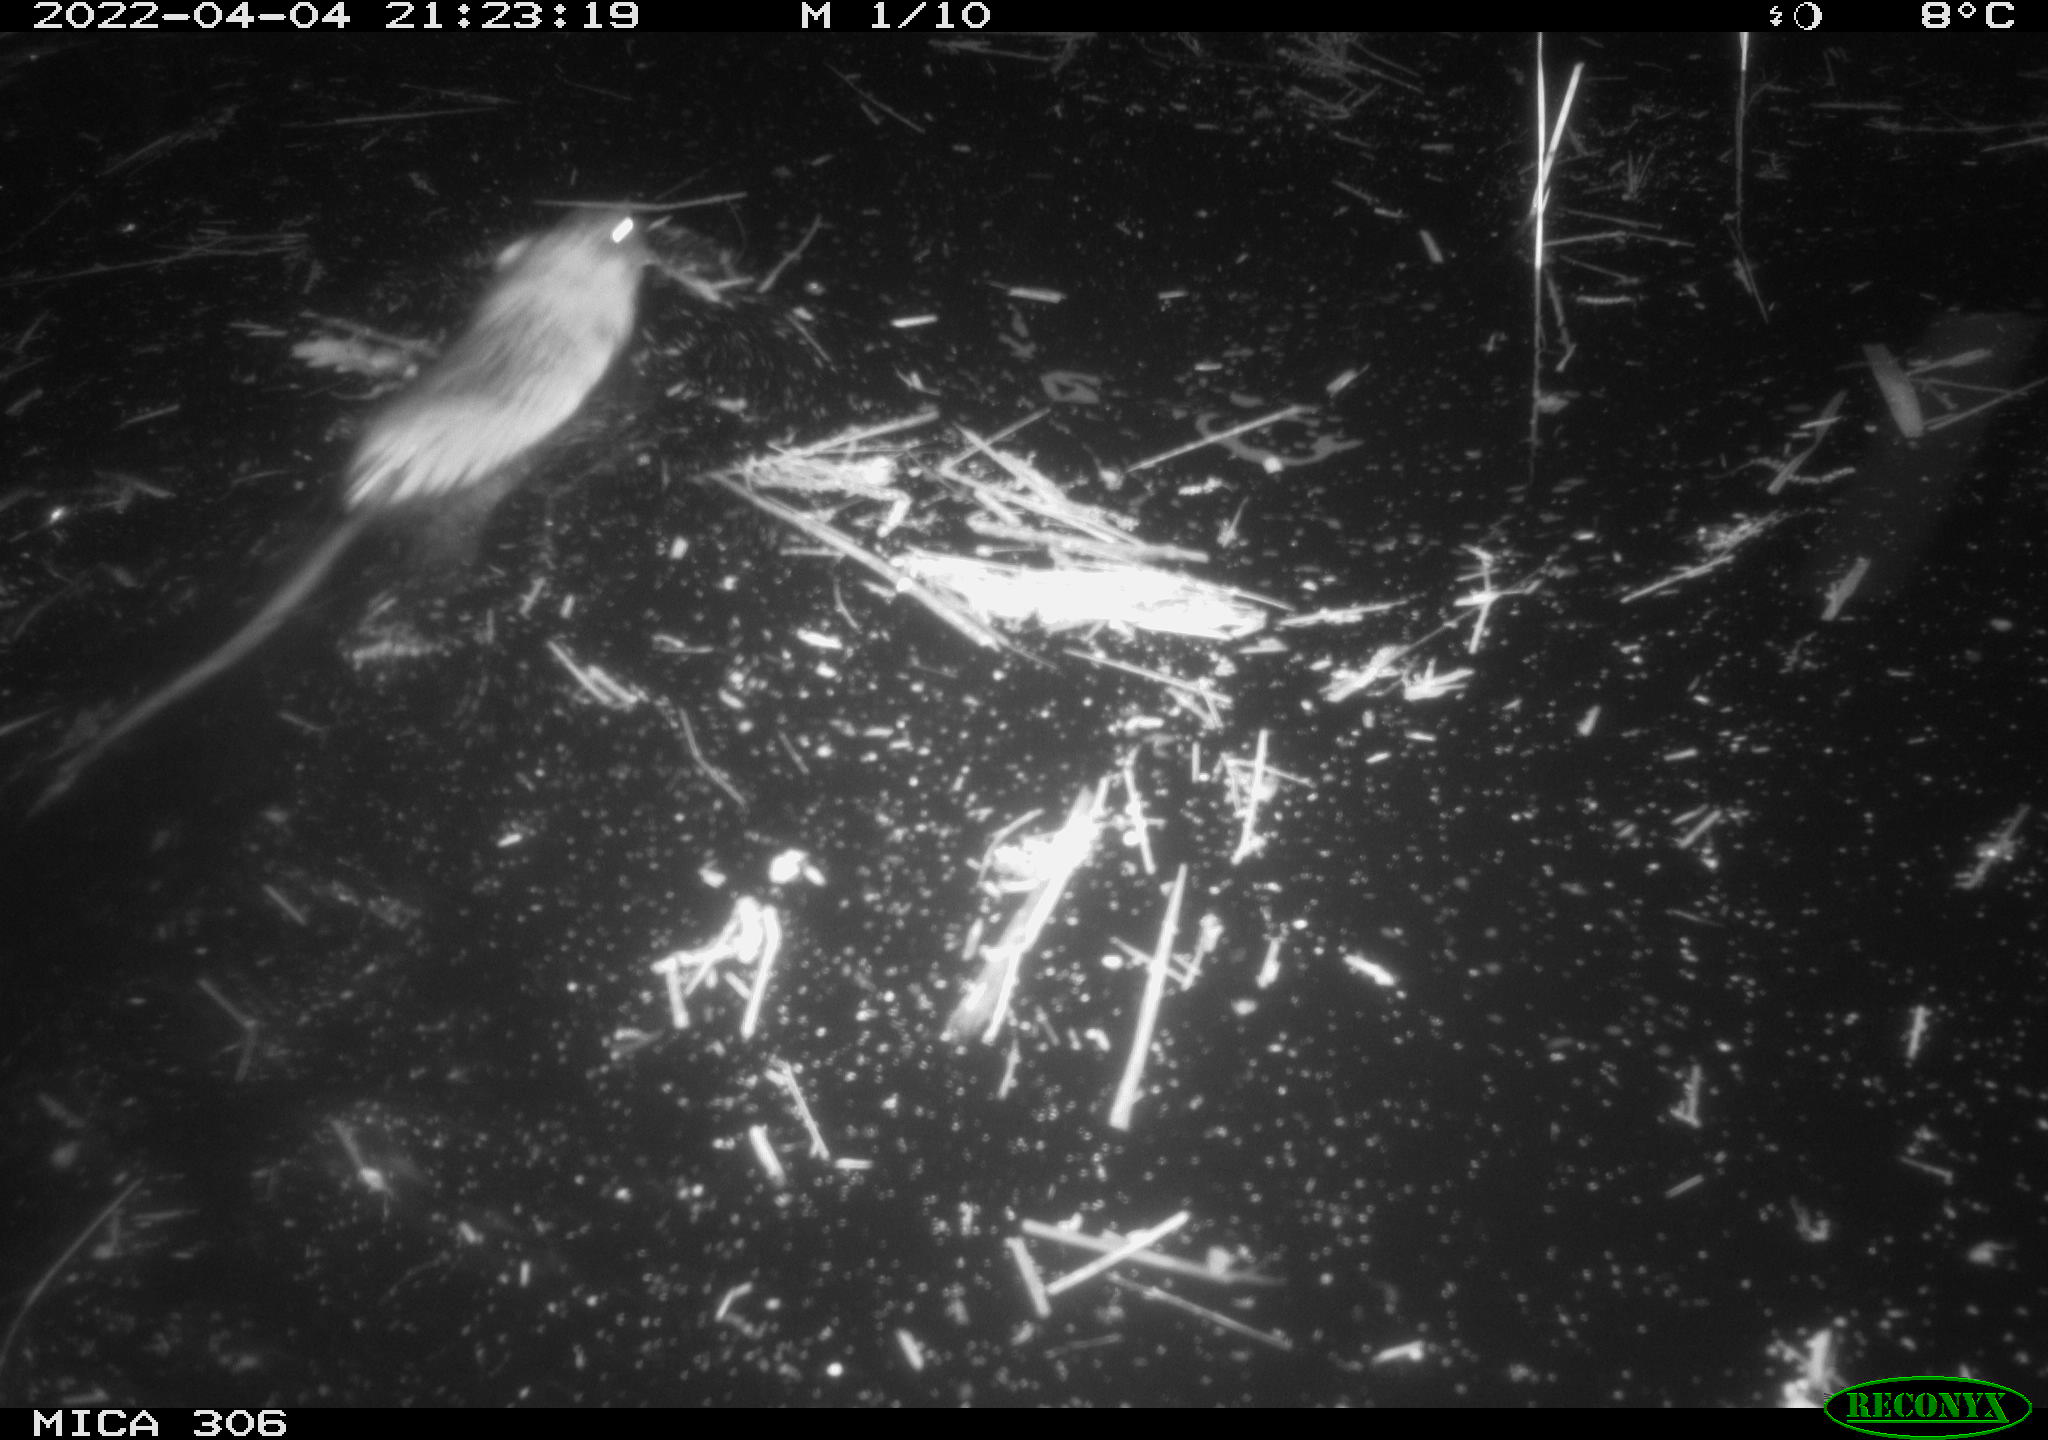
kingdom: Animalia
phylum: Chordata
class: Mammalia
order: Rodentia
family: Cricetidae
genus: Ondatra
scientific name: Ondatra zibethicus
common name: Muskrat
